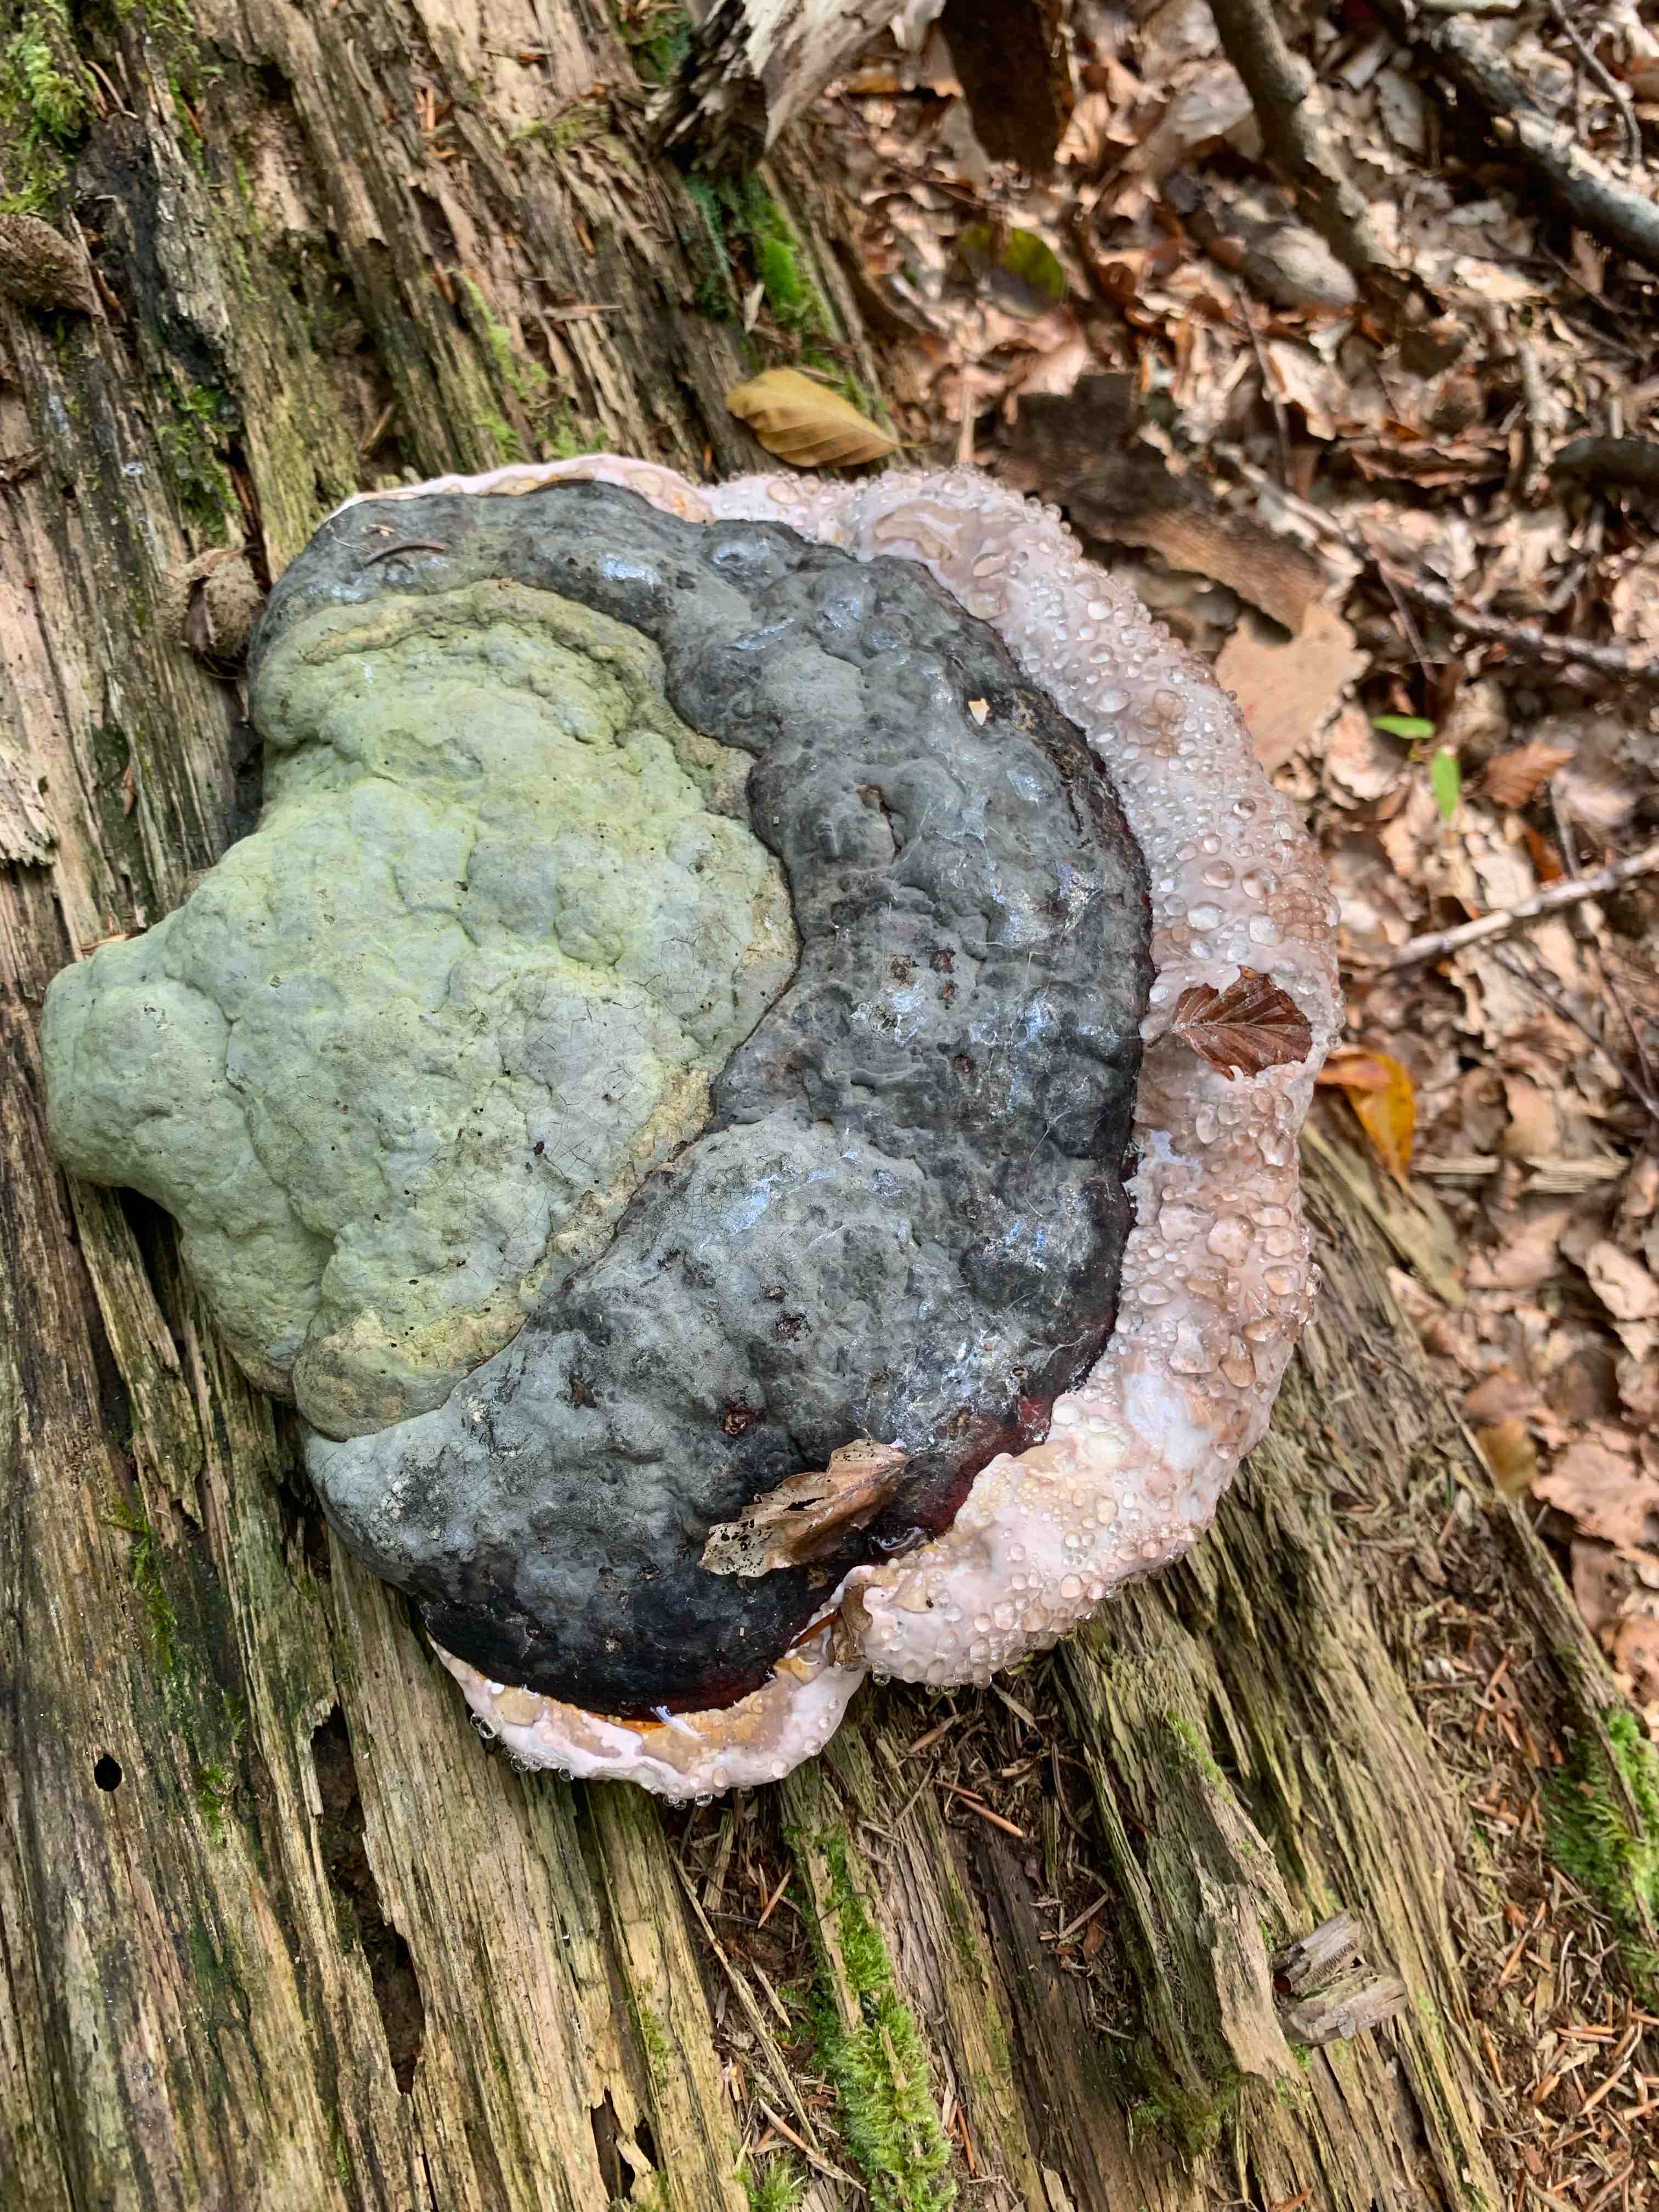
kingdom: Fungi
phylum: Basidiomycota
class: Agaricomycetes
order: Polyporales
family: Fomitopsidaceae
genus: Fomitopsis
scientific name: Fomitopsis pinicola
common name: randbæltet hovporesvamp
